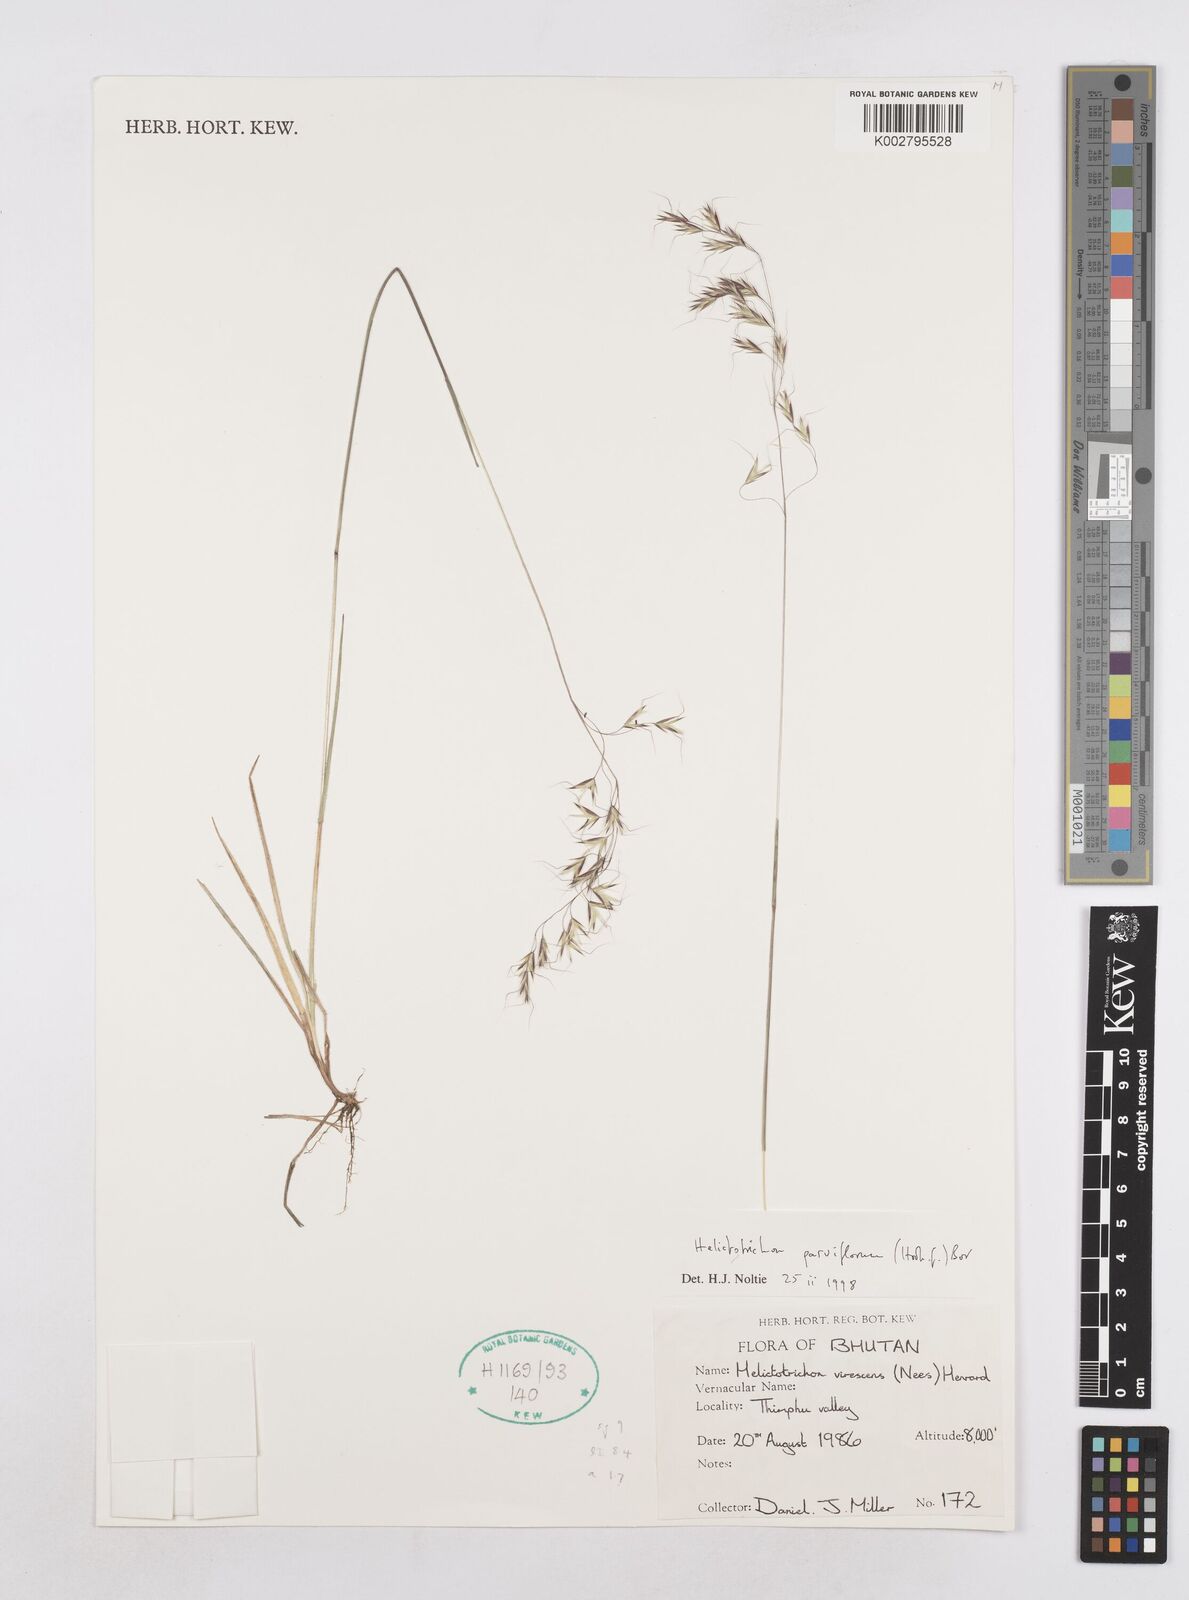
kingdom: Plantae
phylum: Tracheophyta
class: Liliopsida
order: Poales
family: Poaceae
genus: Trisetopsis
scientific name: Trisetopsis junghuhnii
